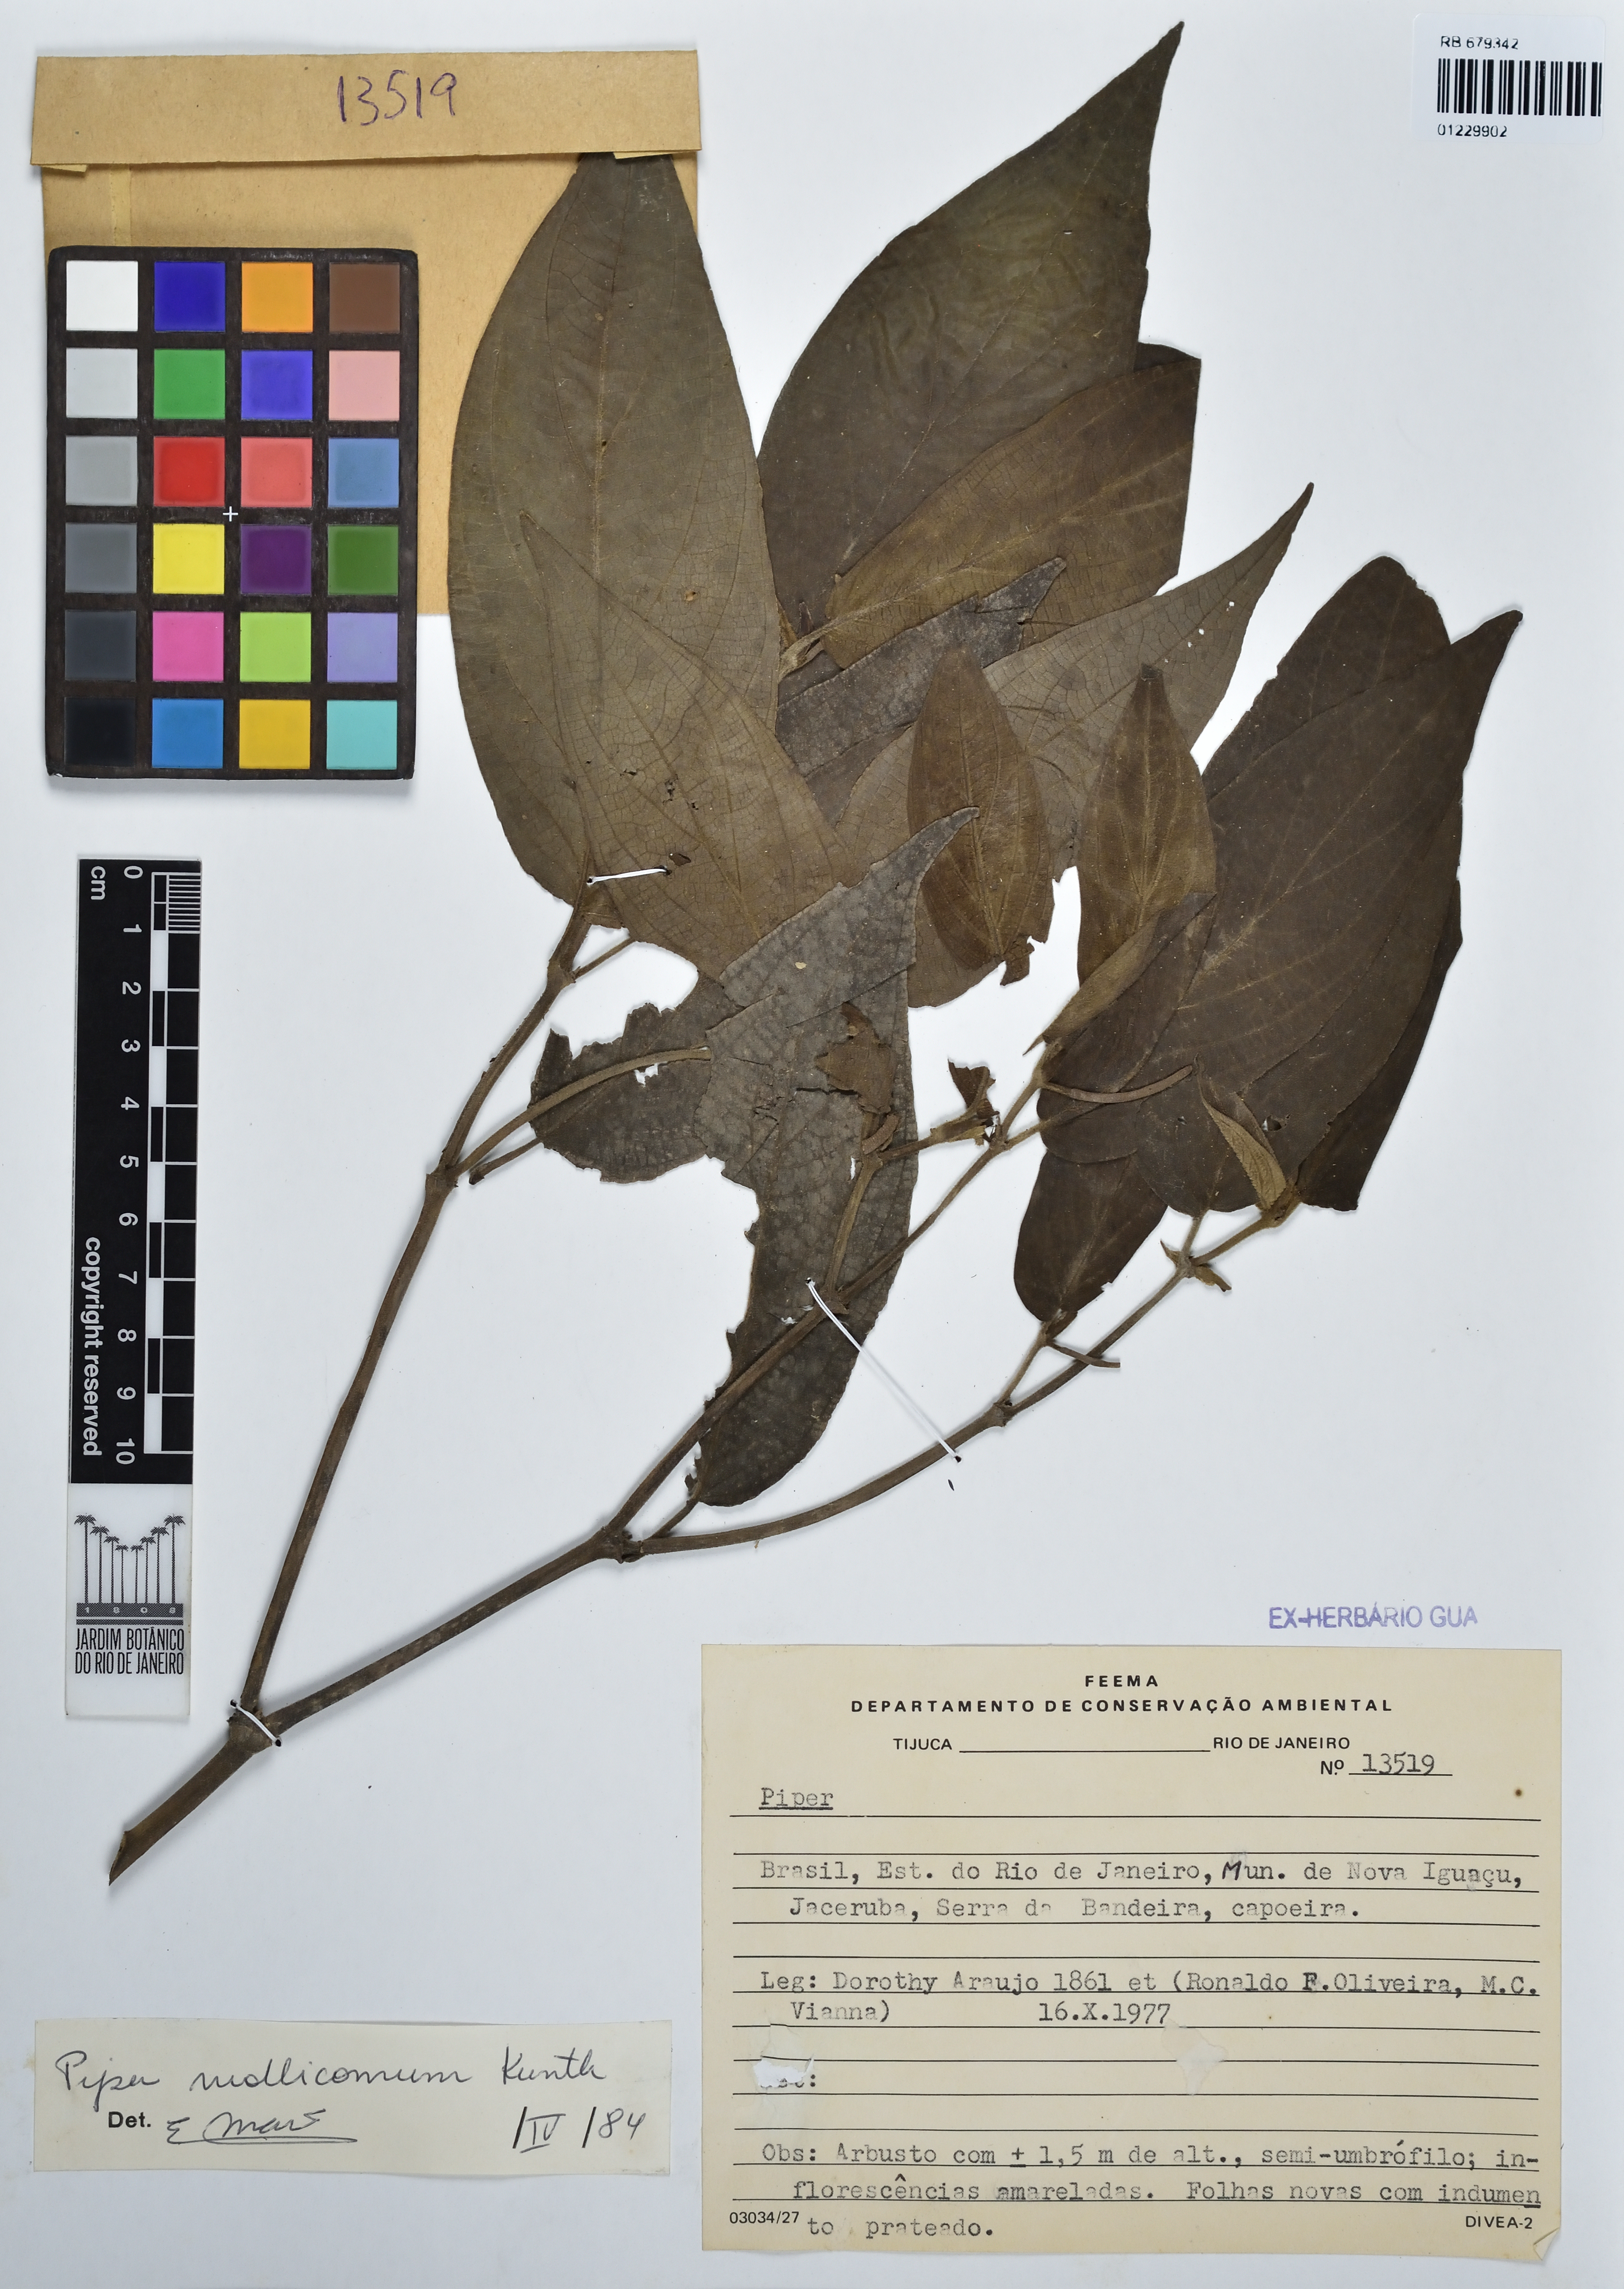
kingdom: Plantae
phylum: Tracheophyta
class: Magnoliopsida
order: Piperales
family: Piperaceae
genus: Piper
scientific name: Piper mollicomum
